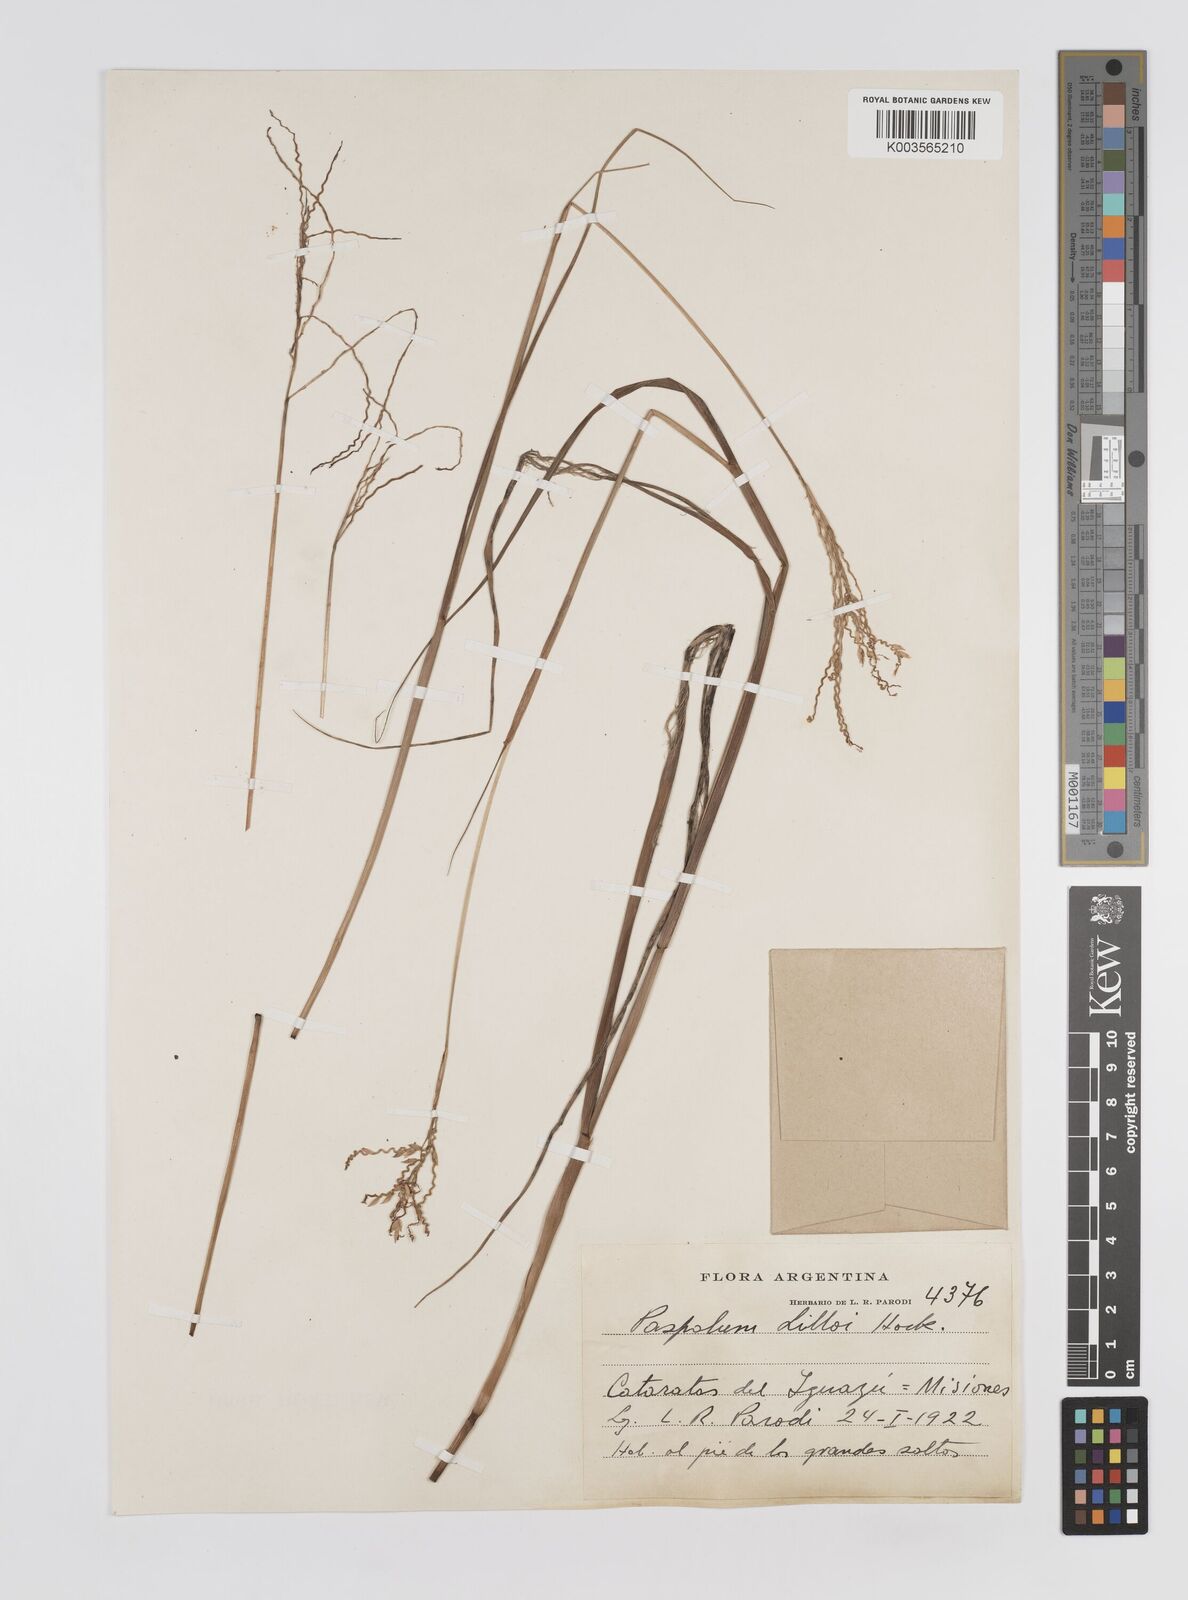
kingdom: Plantae
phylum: Tracheophyta
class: Liliopsida
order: Poales
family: Poaceae
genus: Paspalum
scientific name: Paspalum lilloi
